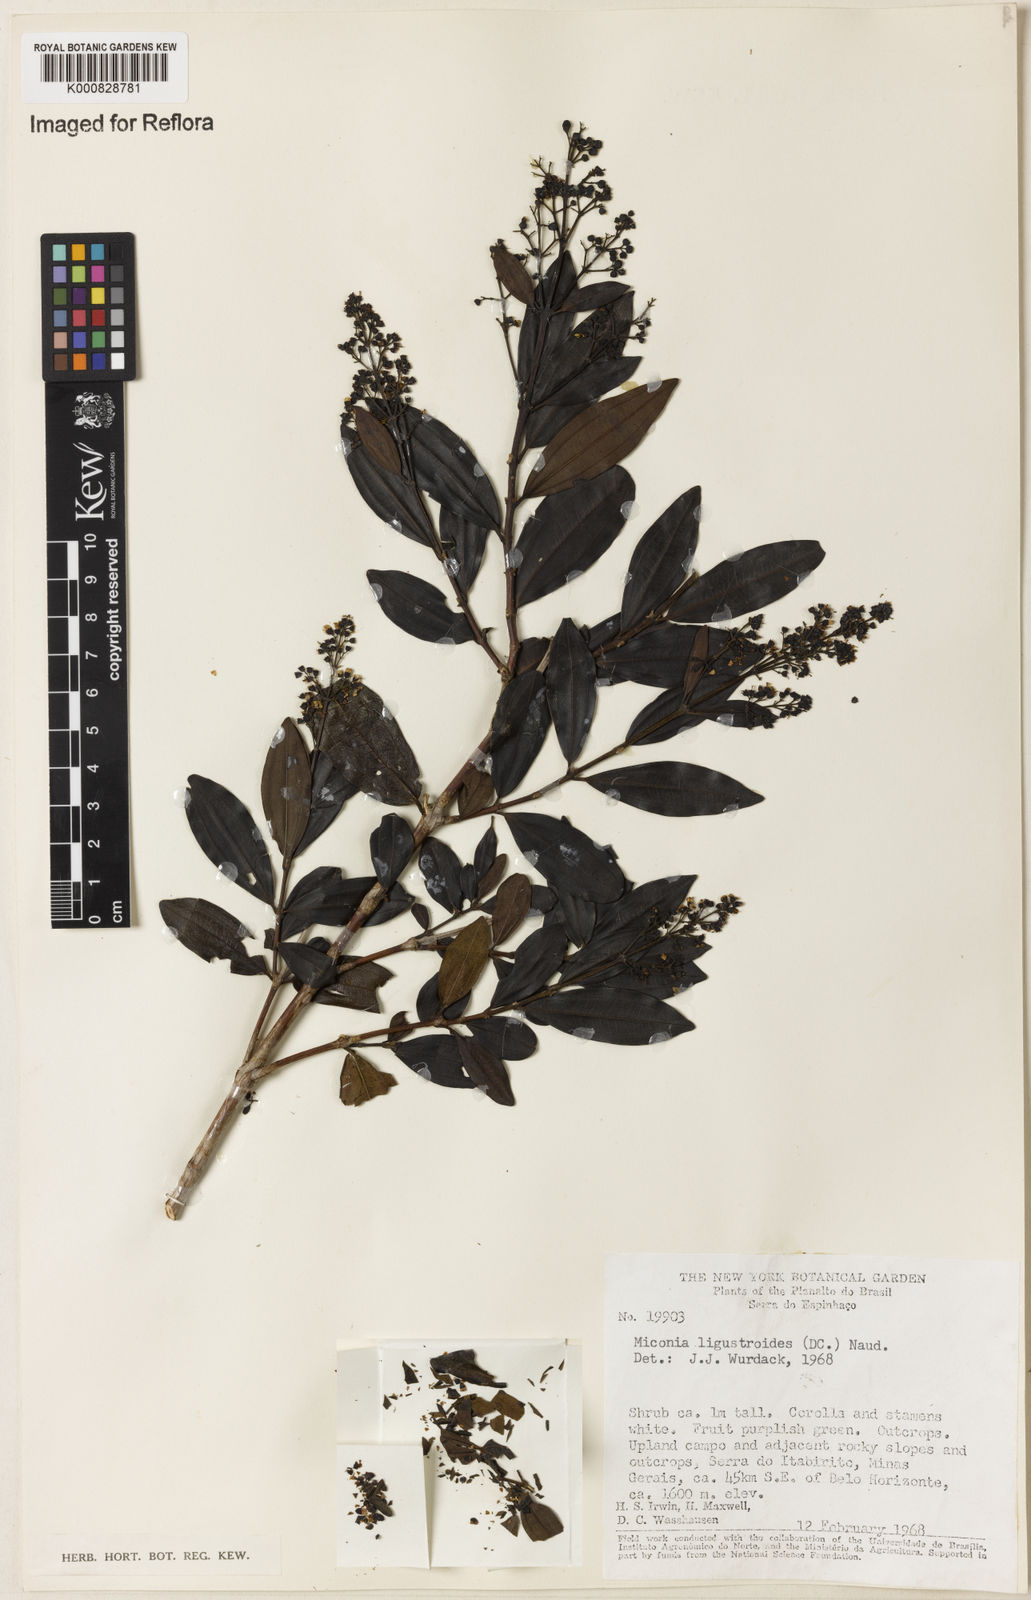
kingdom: Plantae
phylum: Tracheophyta
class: Magnoliopsida
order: Myrtales
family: Melastomataceae
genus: Miconia
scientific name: Miconia ligustroides
